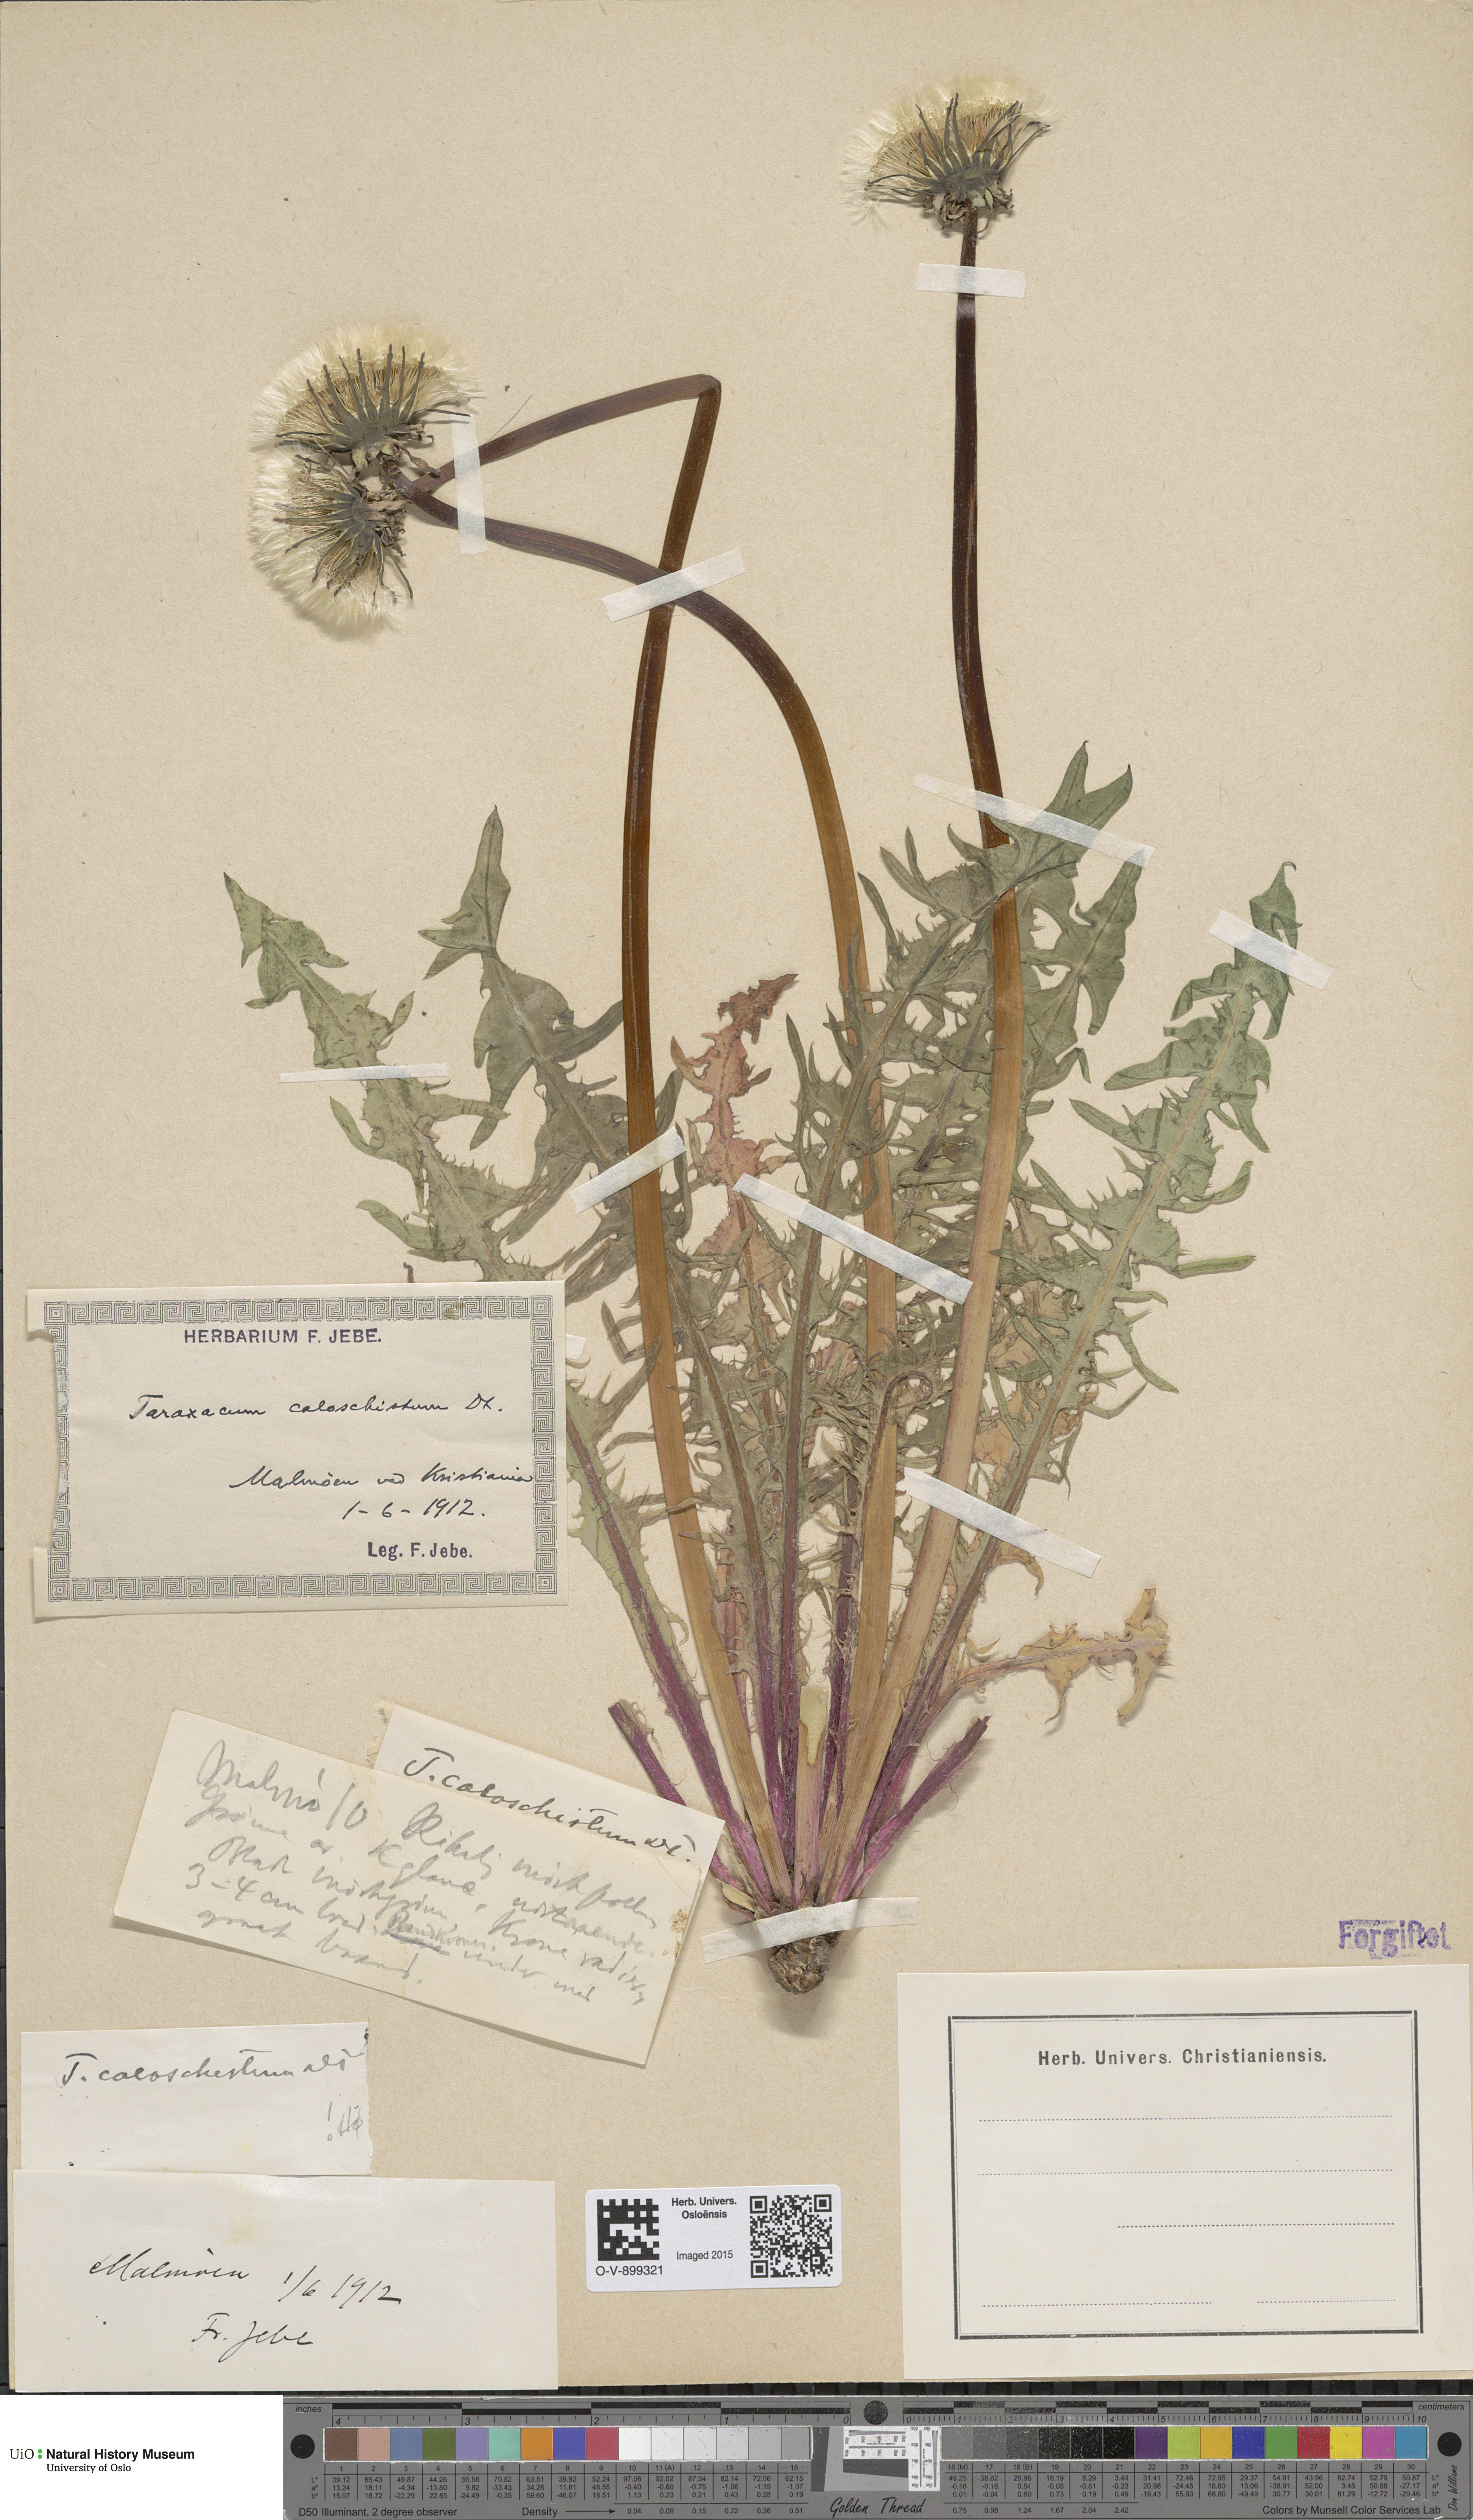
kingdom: Plantae
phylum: Tracheophyta
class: Magnoliopsida
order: Asterales
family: Asteraceae
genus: Taraxacum
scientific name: Taraxacum caloschistum
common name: Brilliant-stalked dandelion
